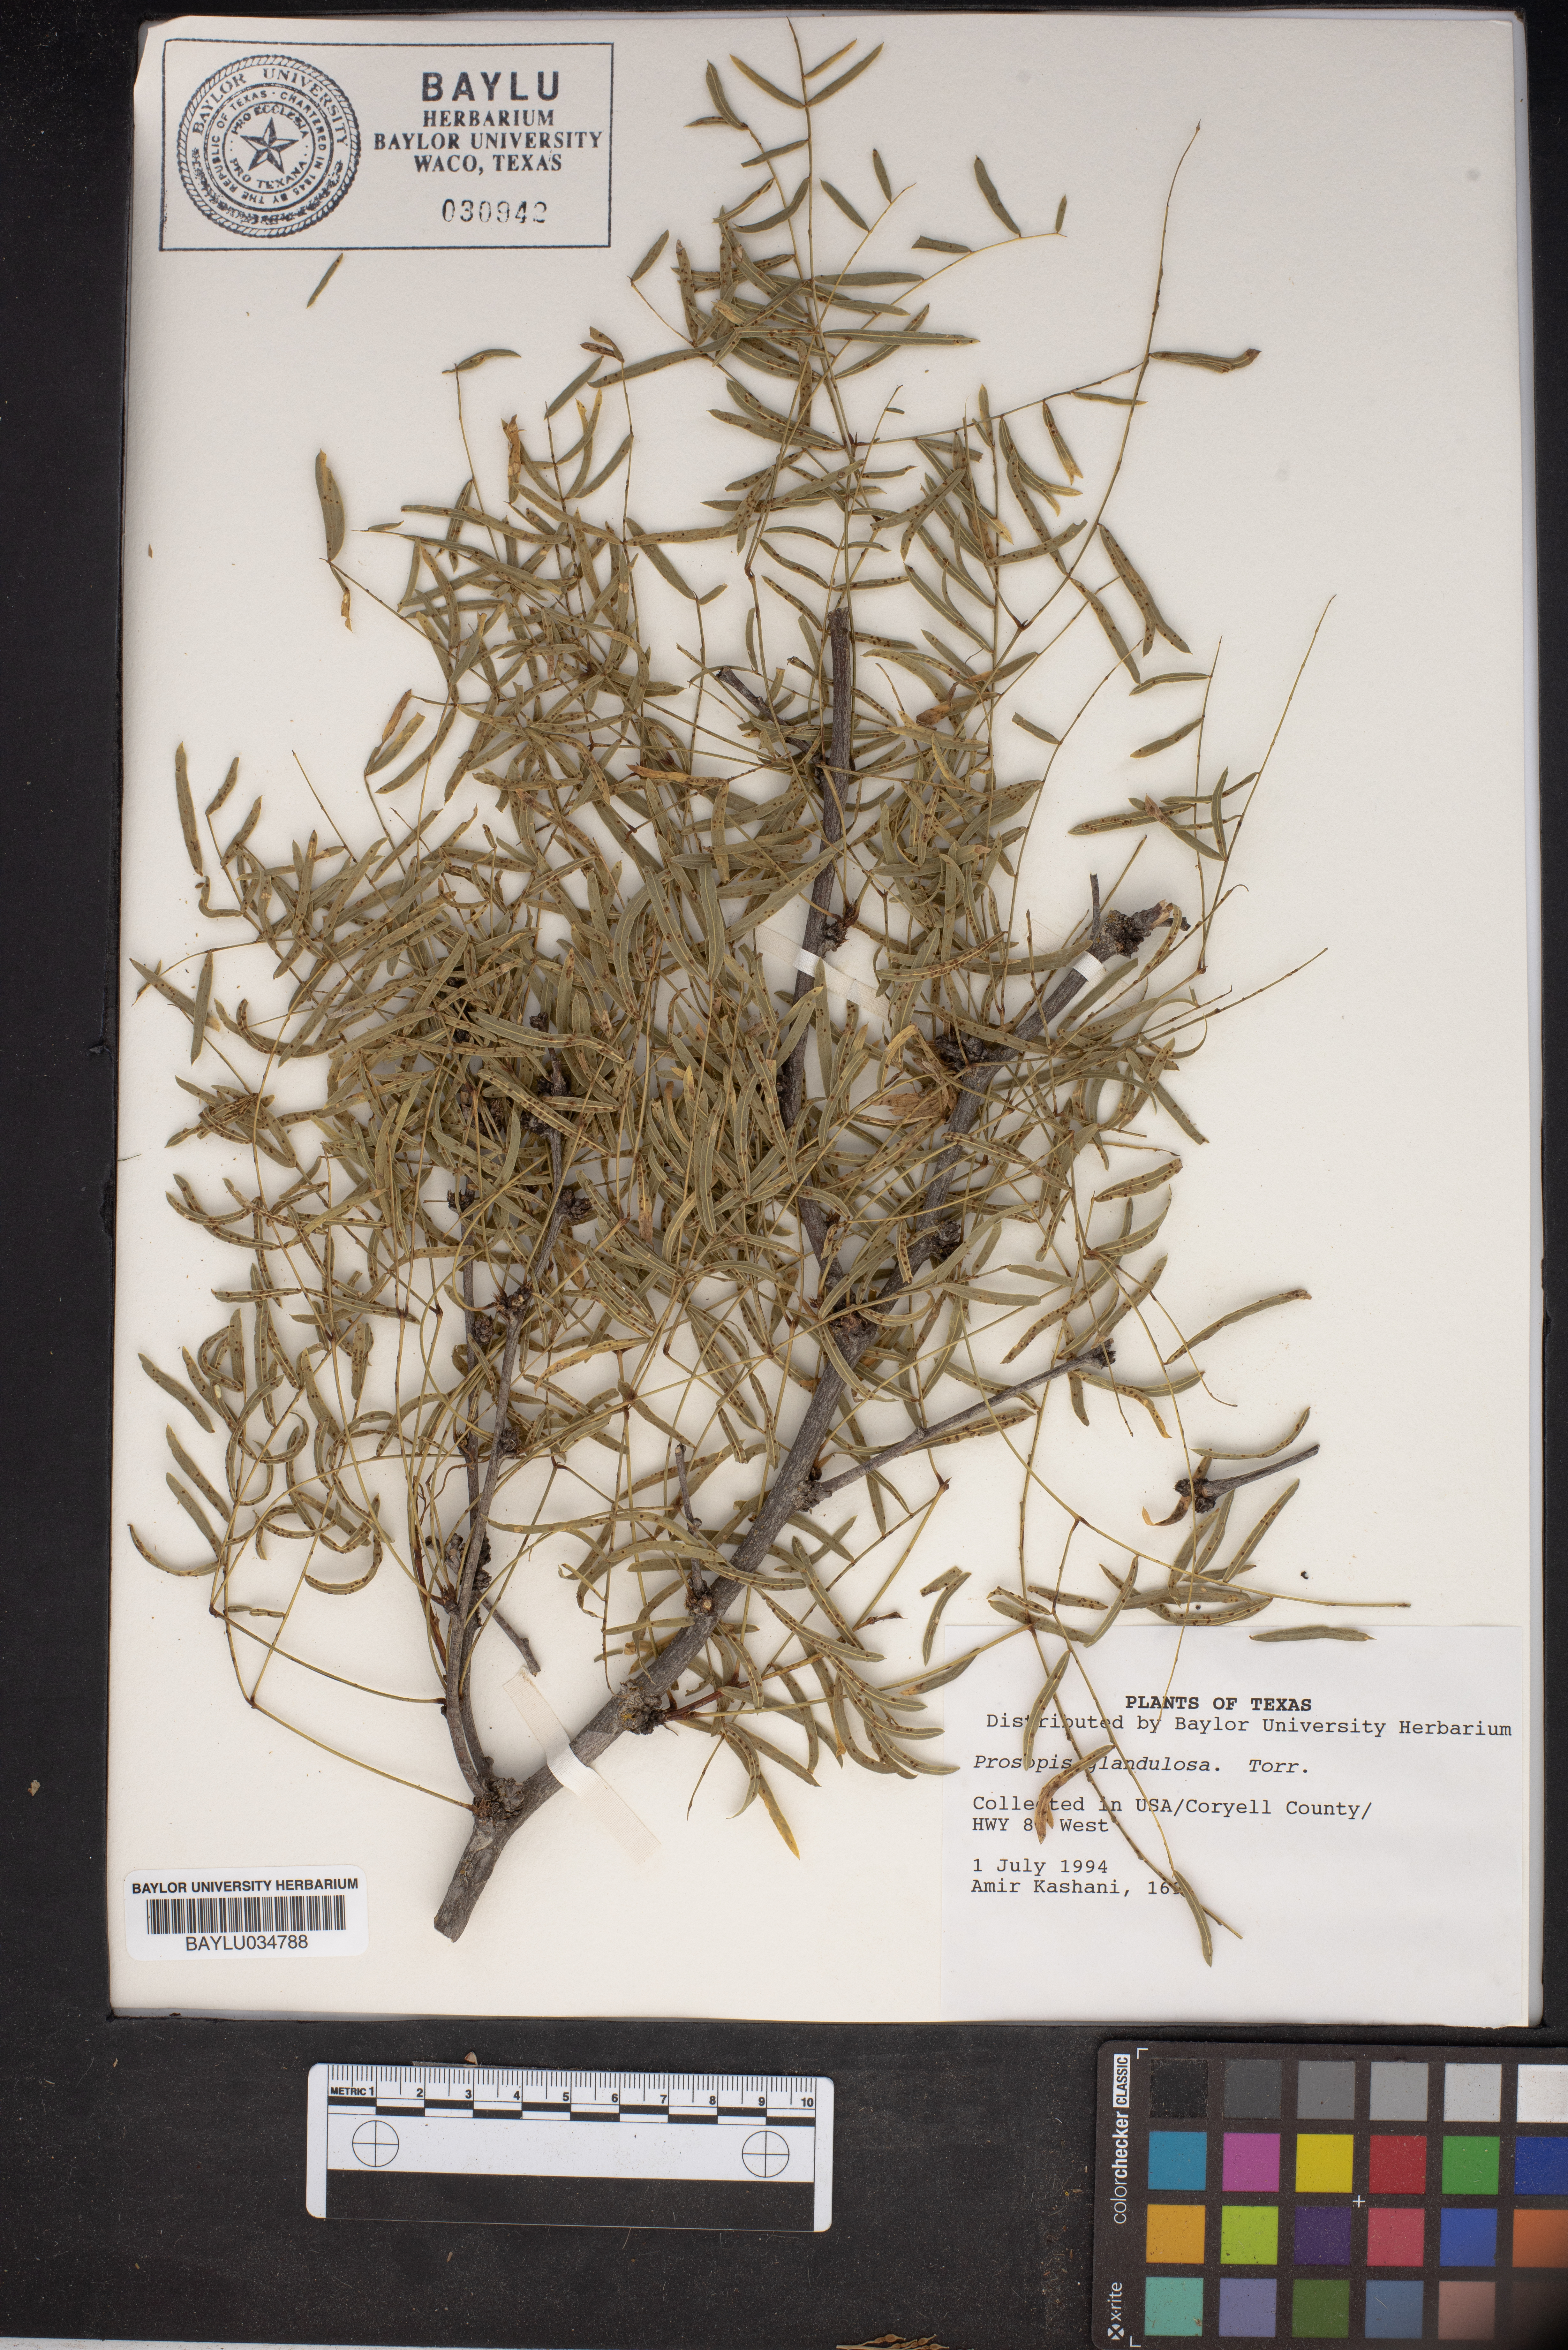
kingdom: Plantae
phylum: Tracheophyta
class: Magnoliopsida
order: Fabales
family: Fabaceae
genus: Prosopis
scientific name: Prosopis glandulosa
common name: Honey mesquite
